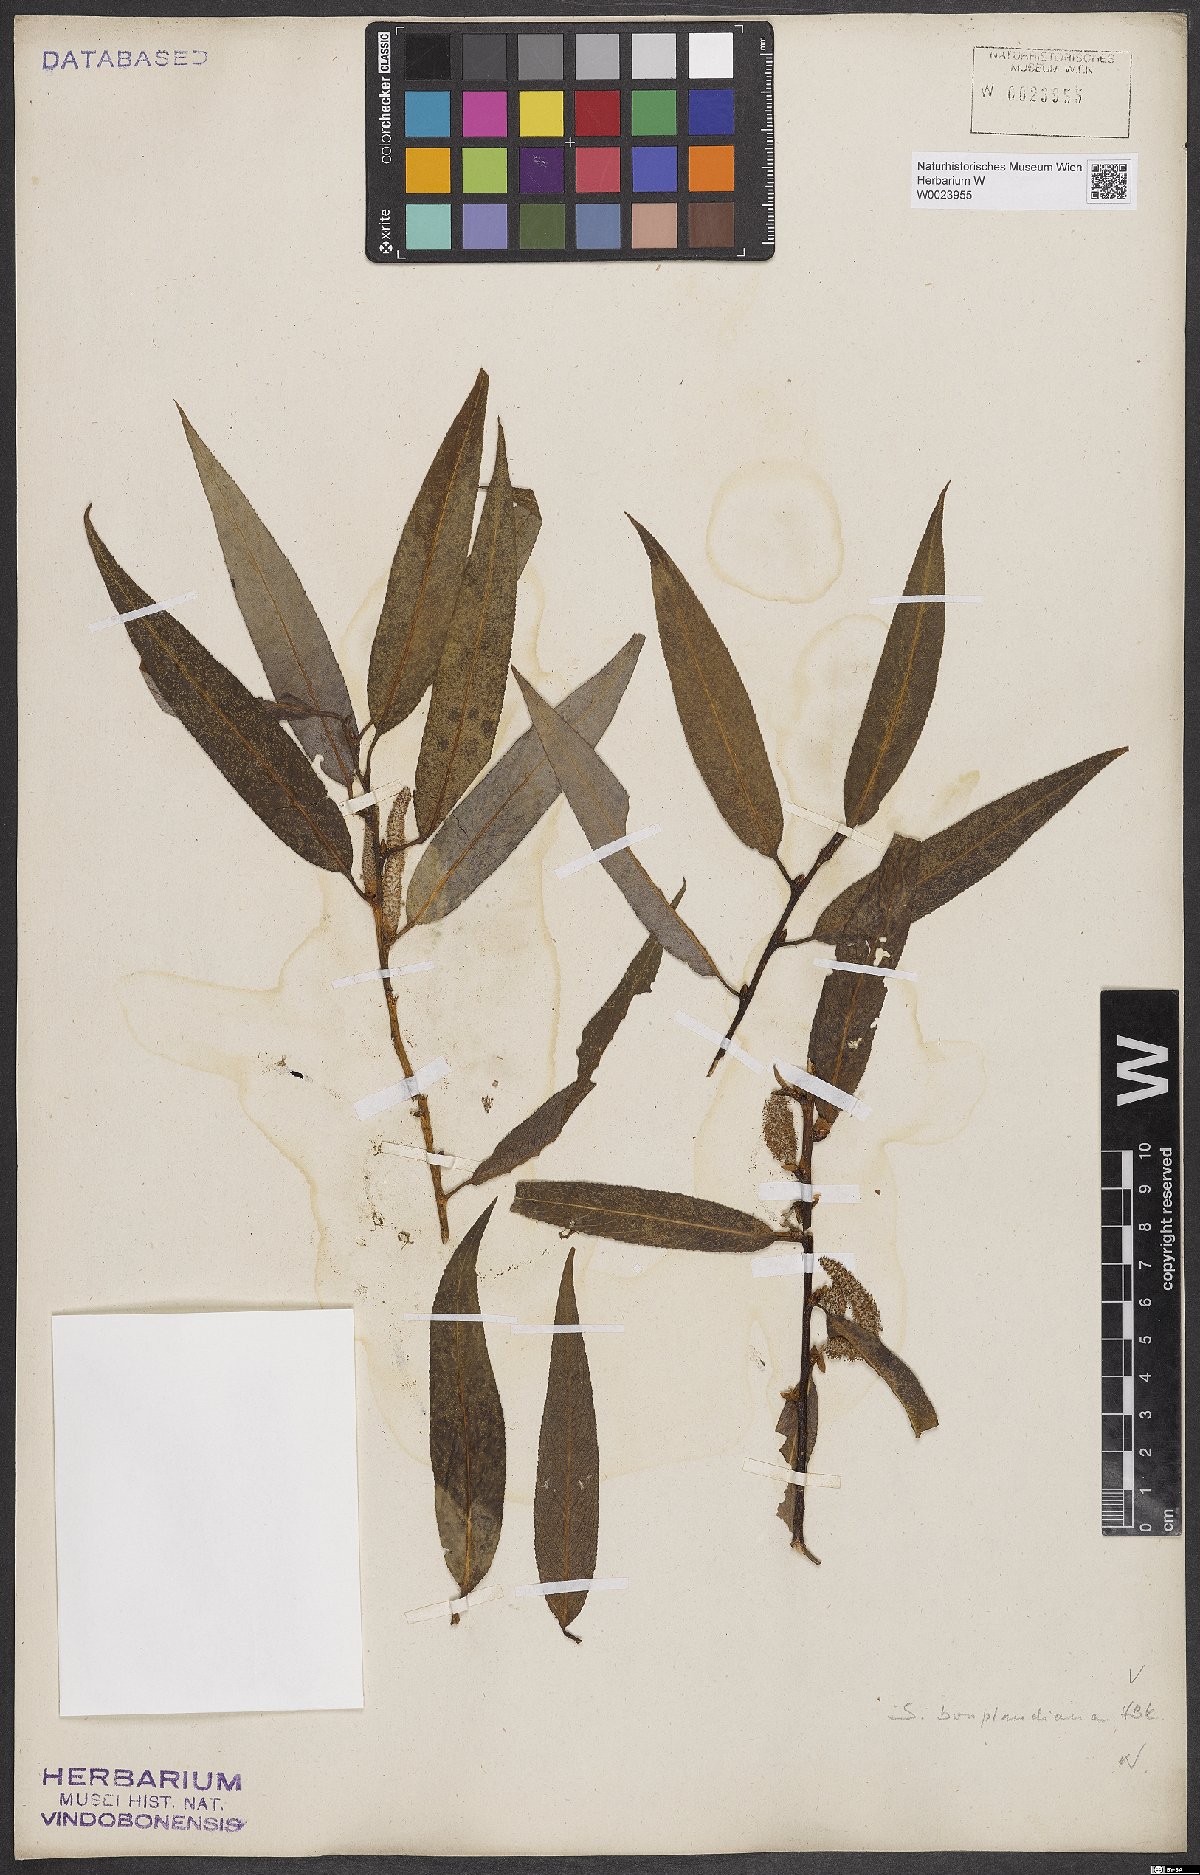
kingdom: Plantae
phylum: Tracheophyta
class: Magnoliopsida
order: Malpighiales
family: Salicaceae
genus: Salix
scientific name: Salix bonplandiana
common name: Bonpland’s willow
